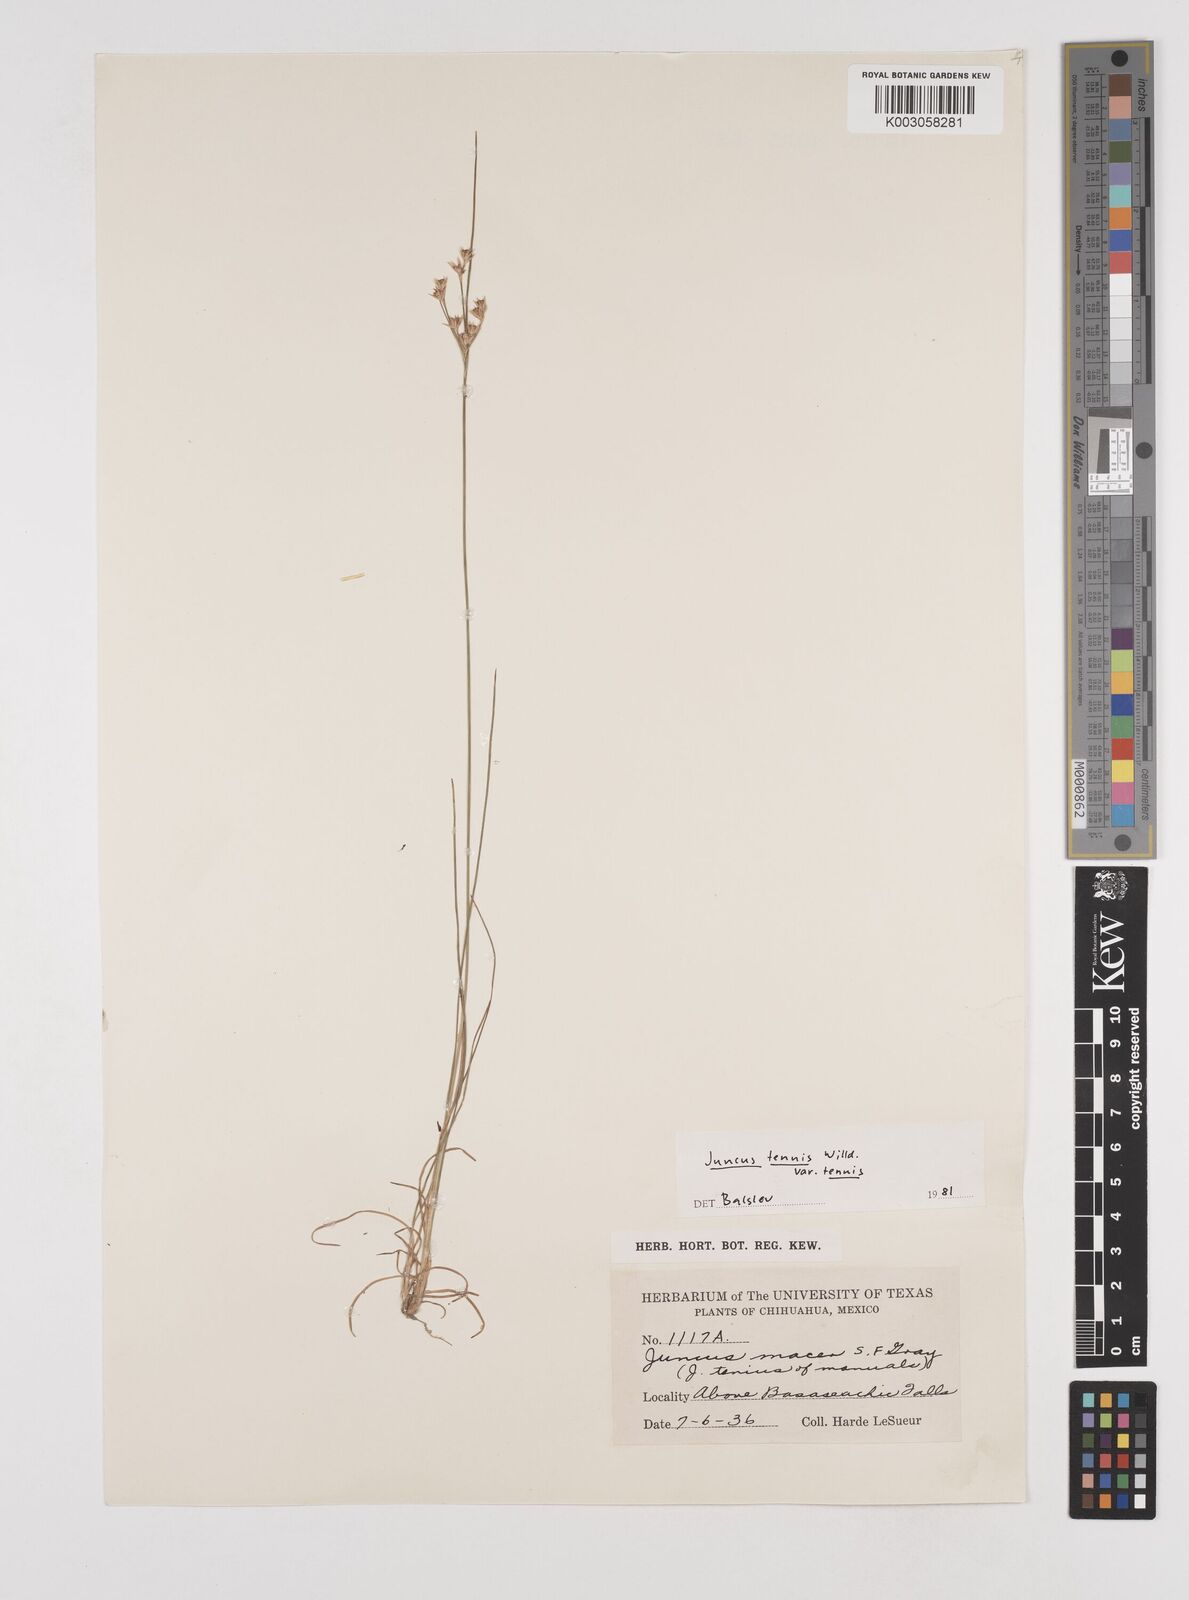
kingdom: Plantae
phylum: Tracheophyta
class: Liliopsida
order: Poales
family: Juncaceae
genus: Juncus
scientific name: Juncus tenuis
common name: Slender rush
